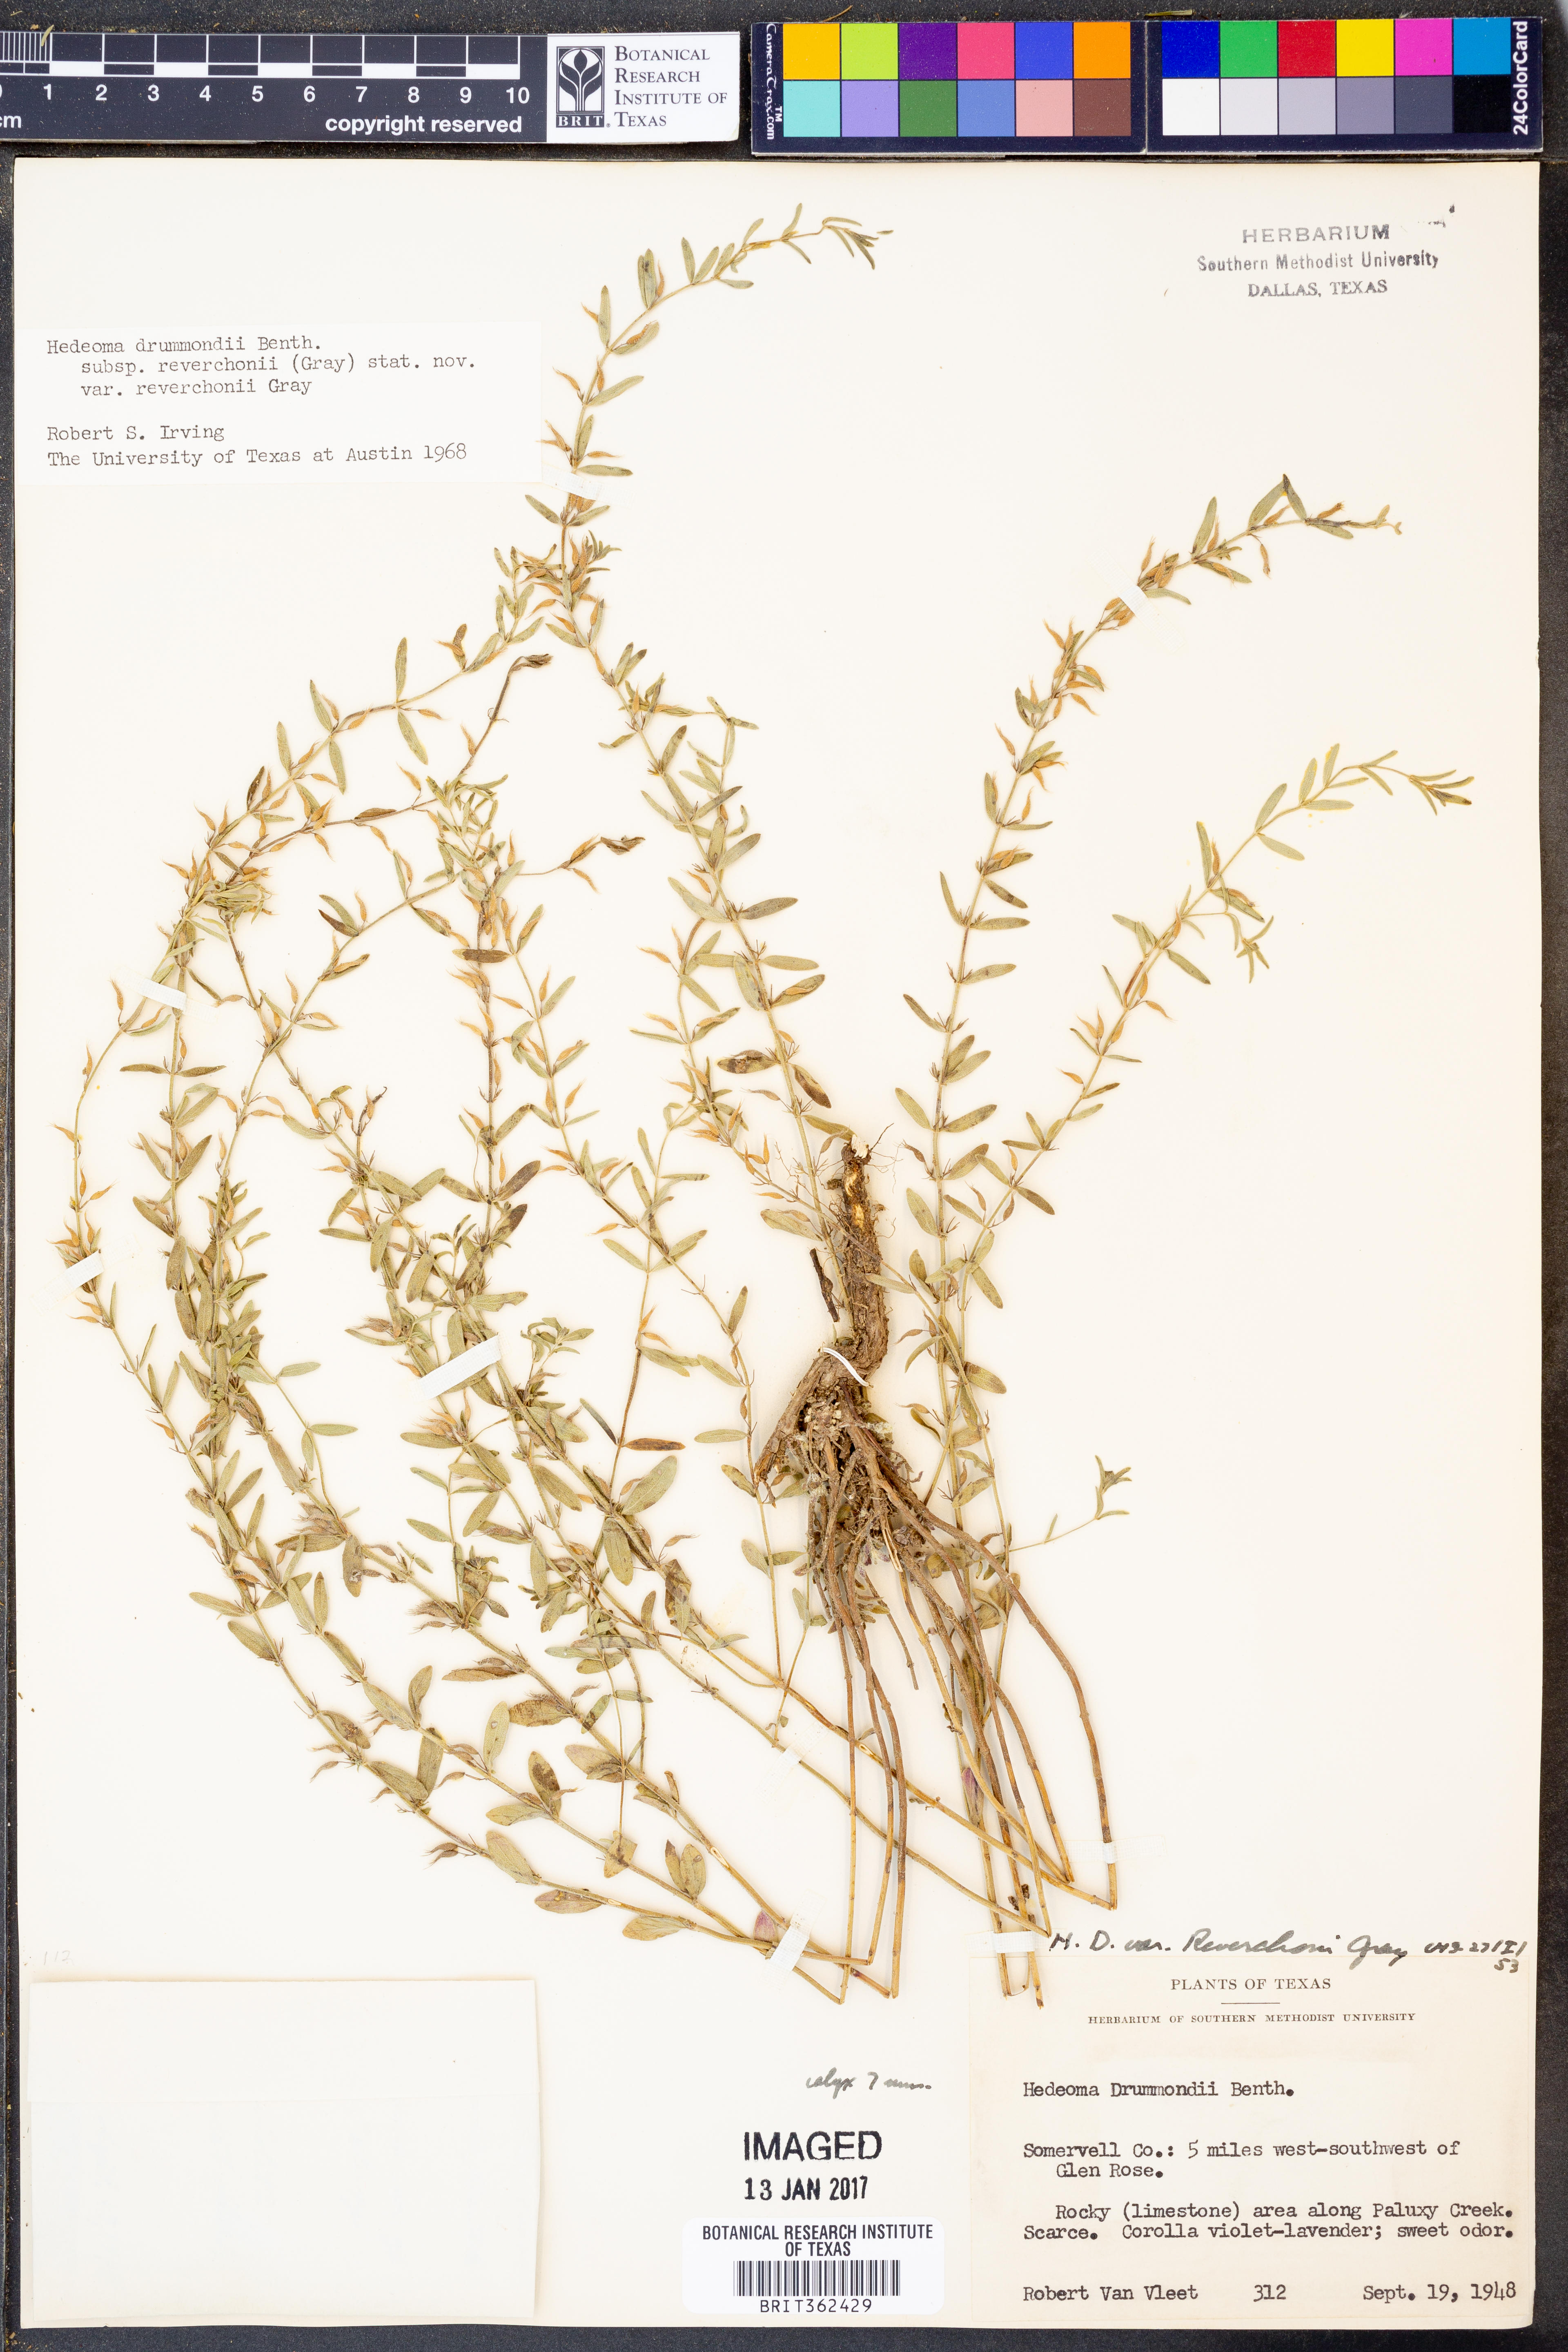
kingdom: Plantae
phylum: Tracheophyta
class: Magnoliopsida
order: Lamiales
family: Lamiaceae
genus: Hedeoma
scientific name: Hedeoma reverchonii
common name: Reverchon's false penny-royal
